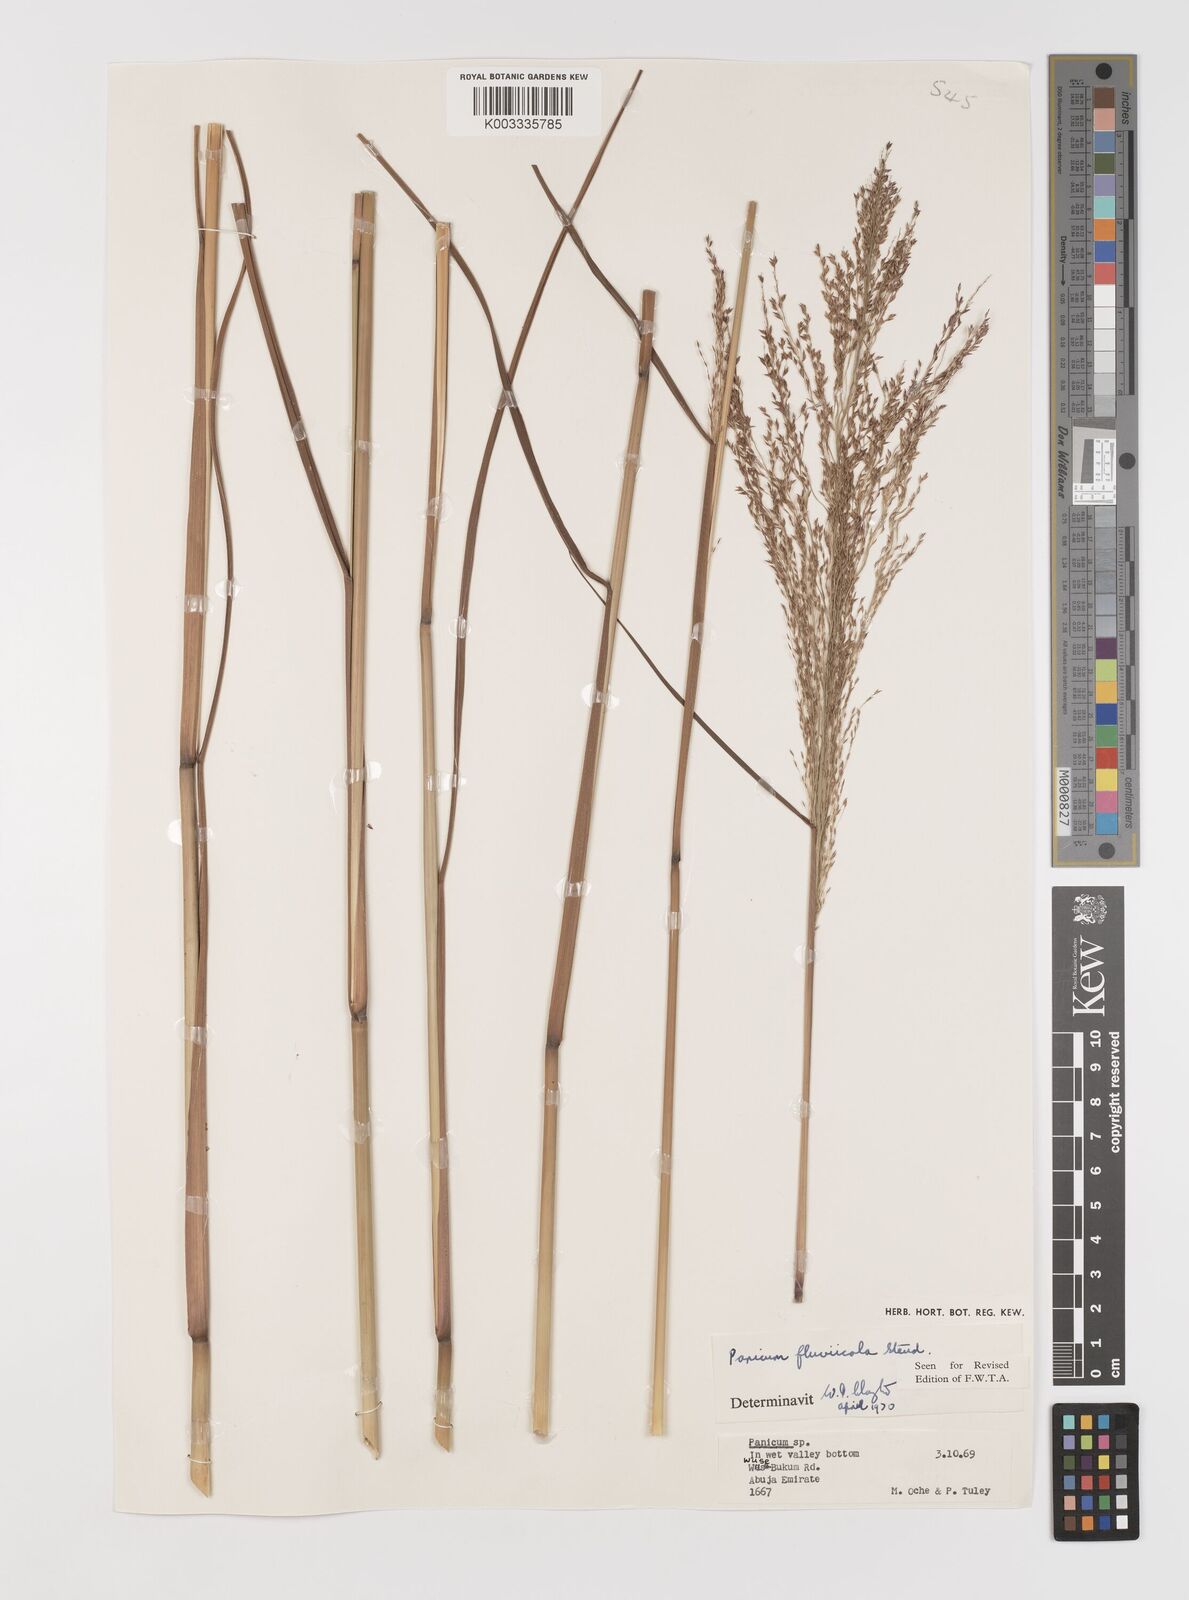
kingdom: Plantae
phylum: Tracheophyta
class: Liliopsida
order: Poales
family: Poaceae
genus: Panicum
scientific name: Panicum fluviicola
